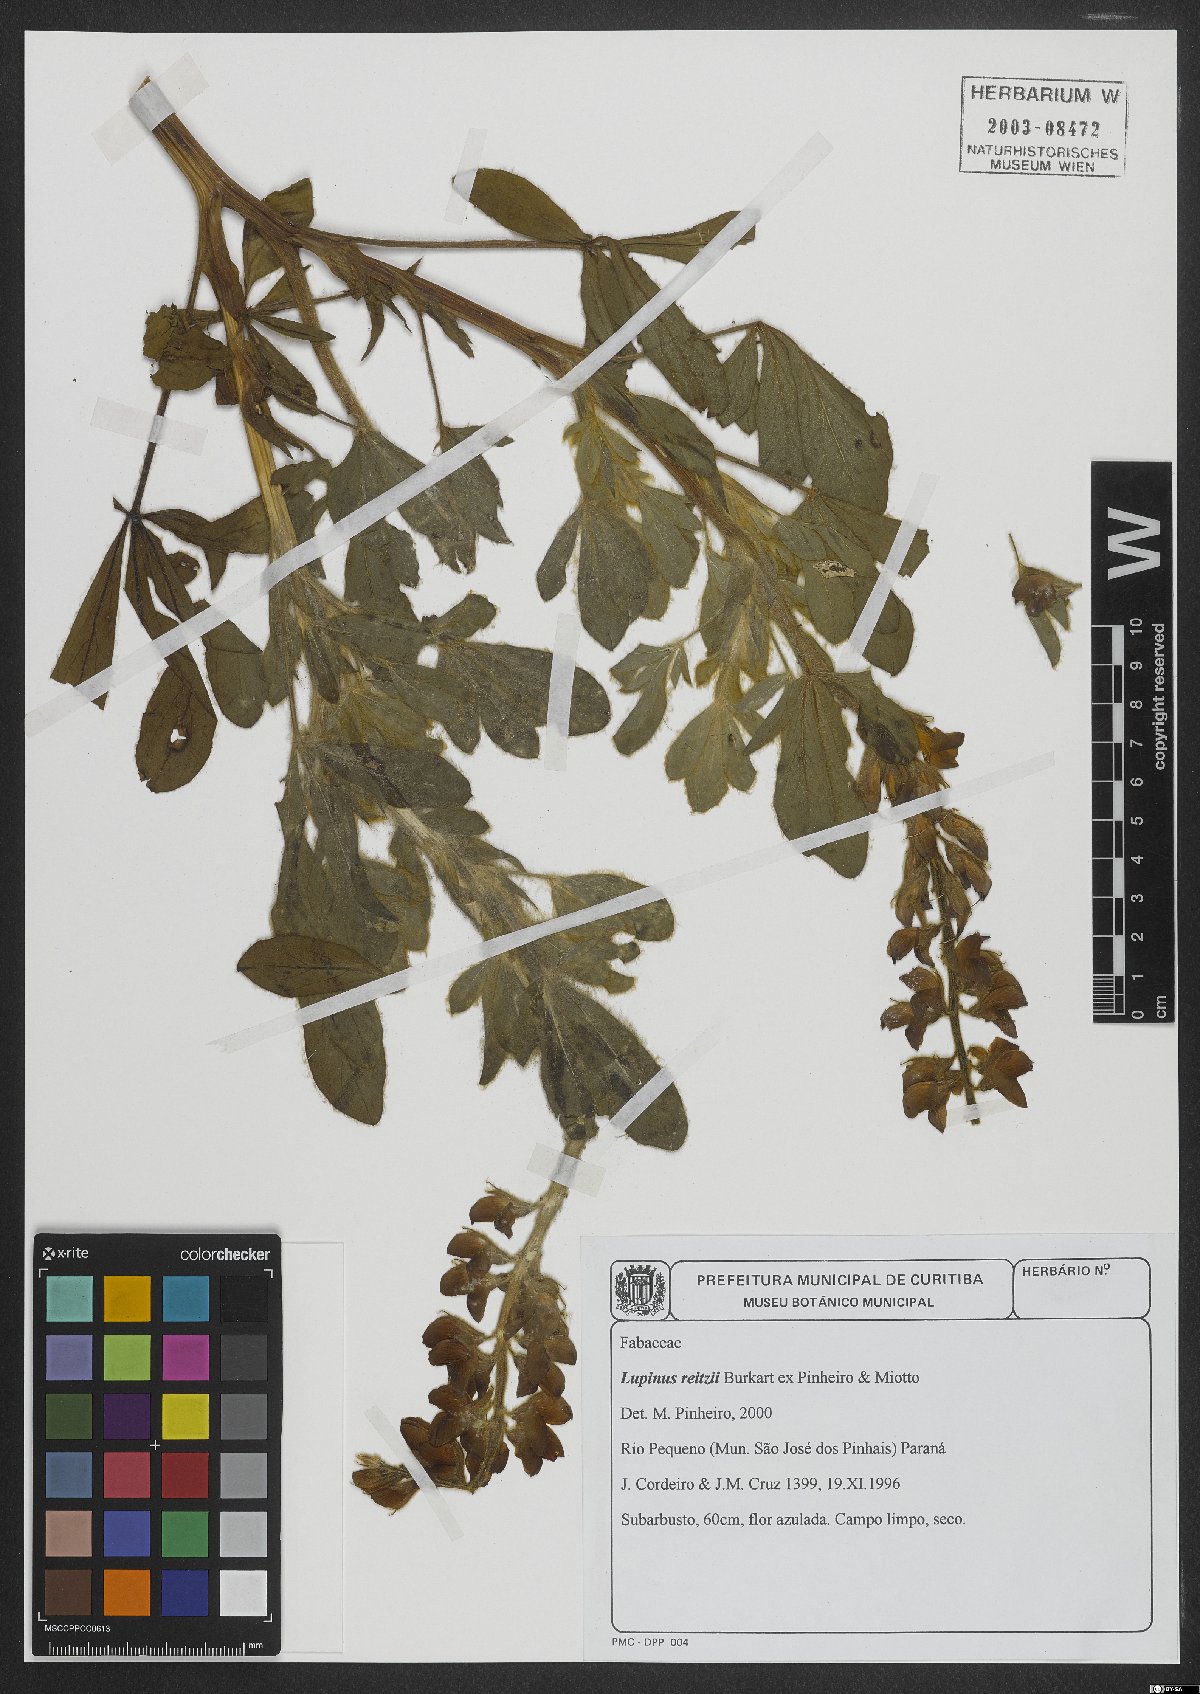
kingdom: Plantae
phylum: Tracheophyta
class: Magnoliopsida
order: Fabales
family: Fabaceae
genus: Lupinus
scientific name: Lupinus reitzii
